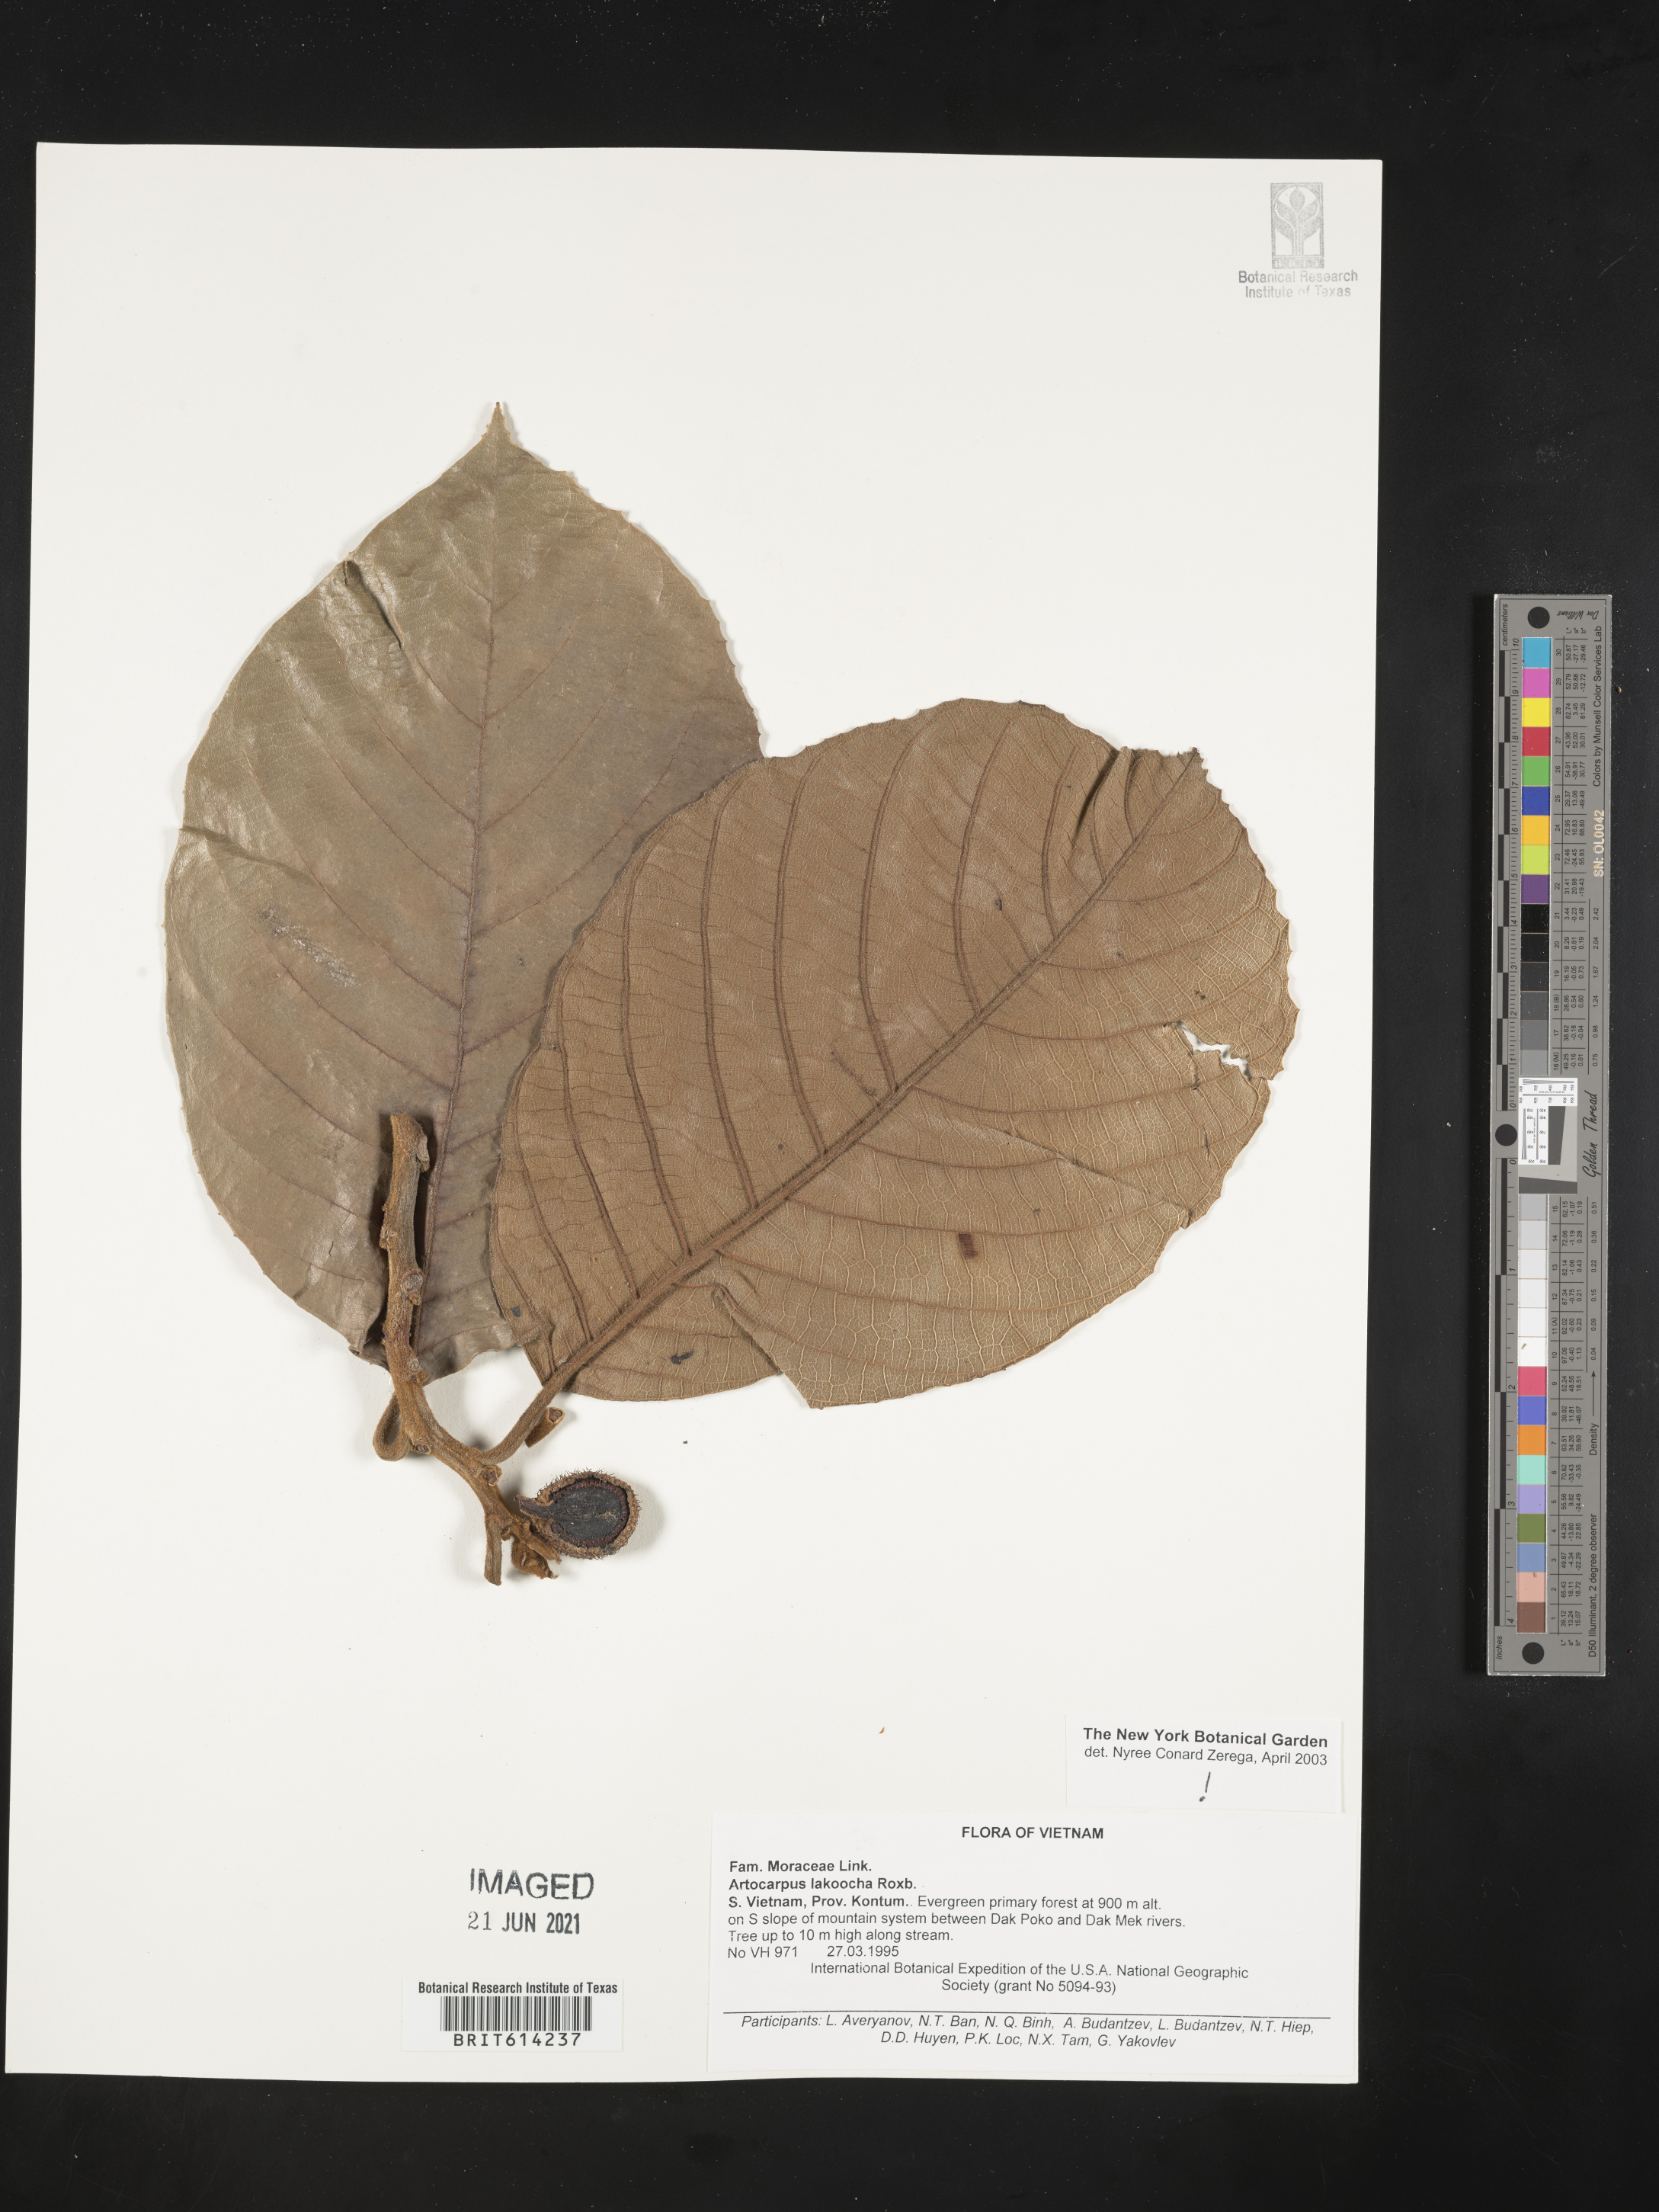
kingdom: Plantae
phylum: Tracheophyta
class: Magnoliopsida
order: Rosales
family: Moraceae
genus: Artocarpus
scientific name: Artocarpus lacucha
